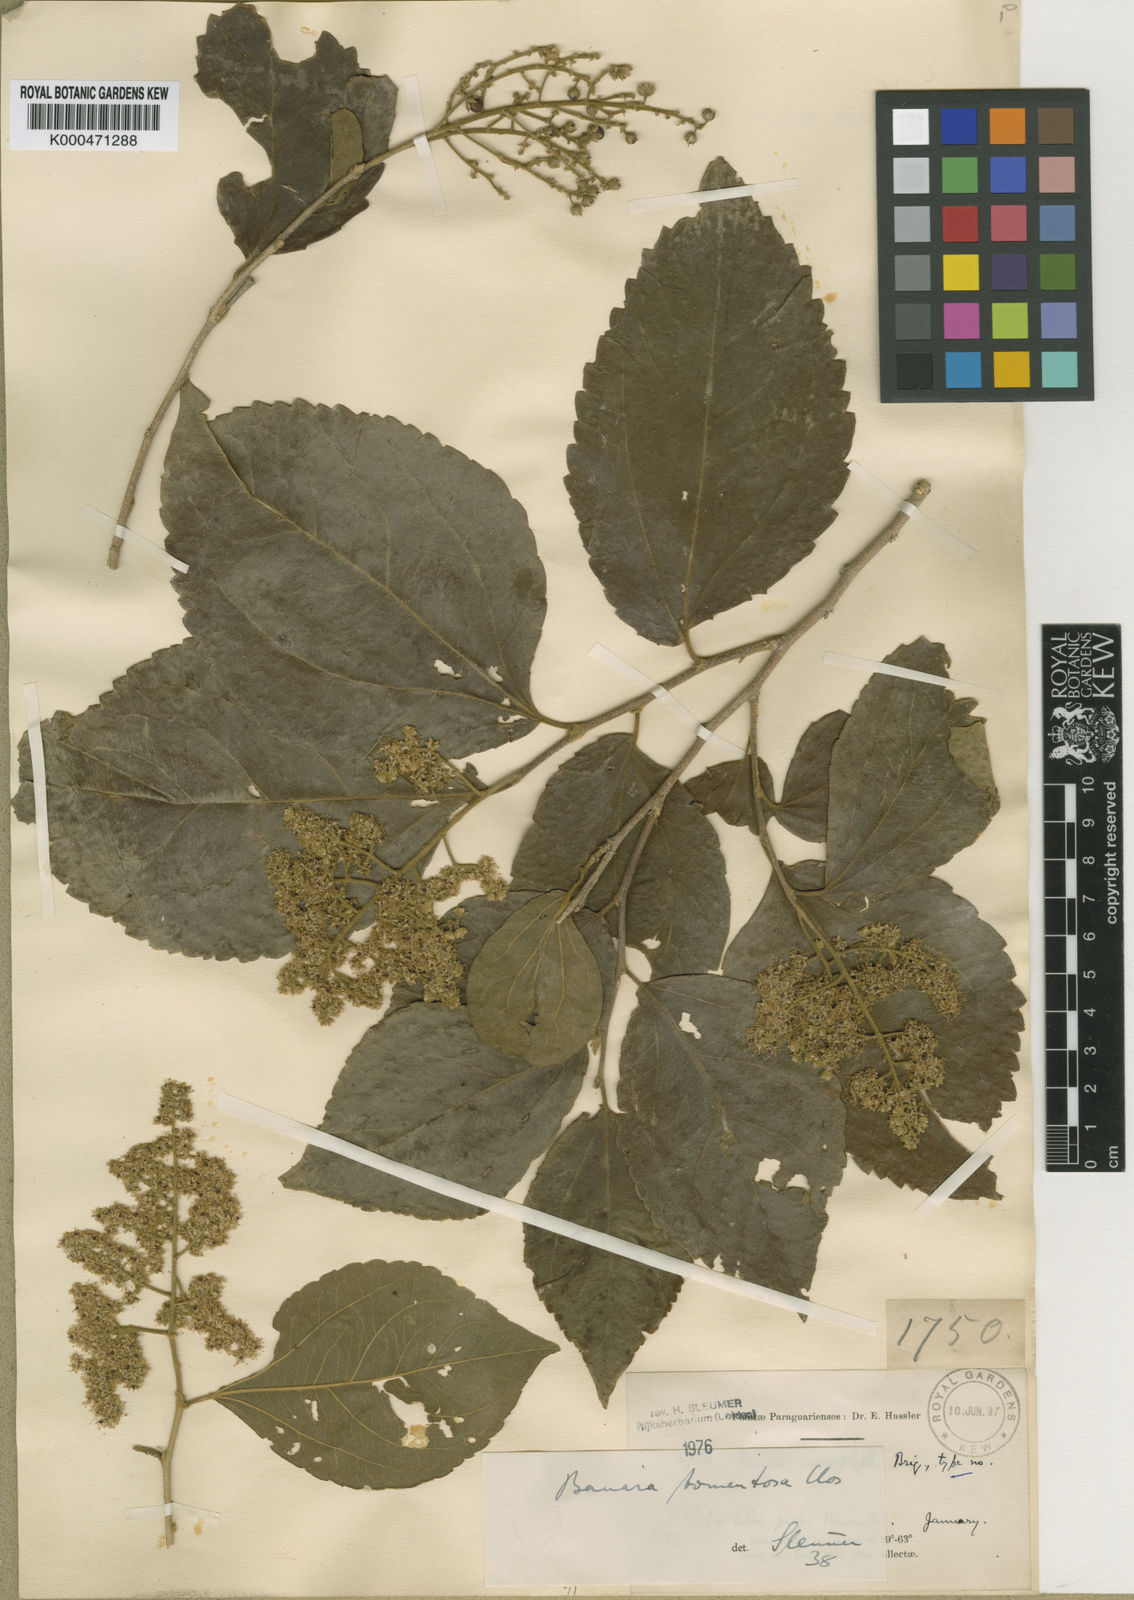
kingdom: Plantae
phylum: Tracheophyta
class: Magnoliopsida
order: Malpighiales
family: Salicaceae
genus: Banara
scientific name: Banara tomentosa
